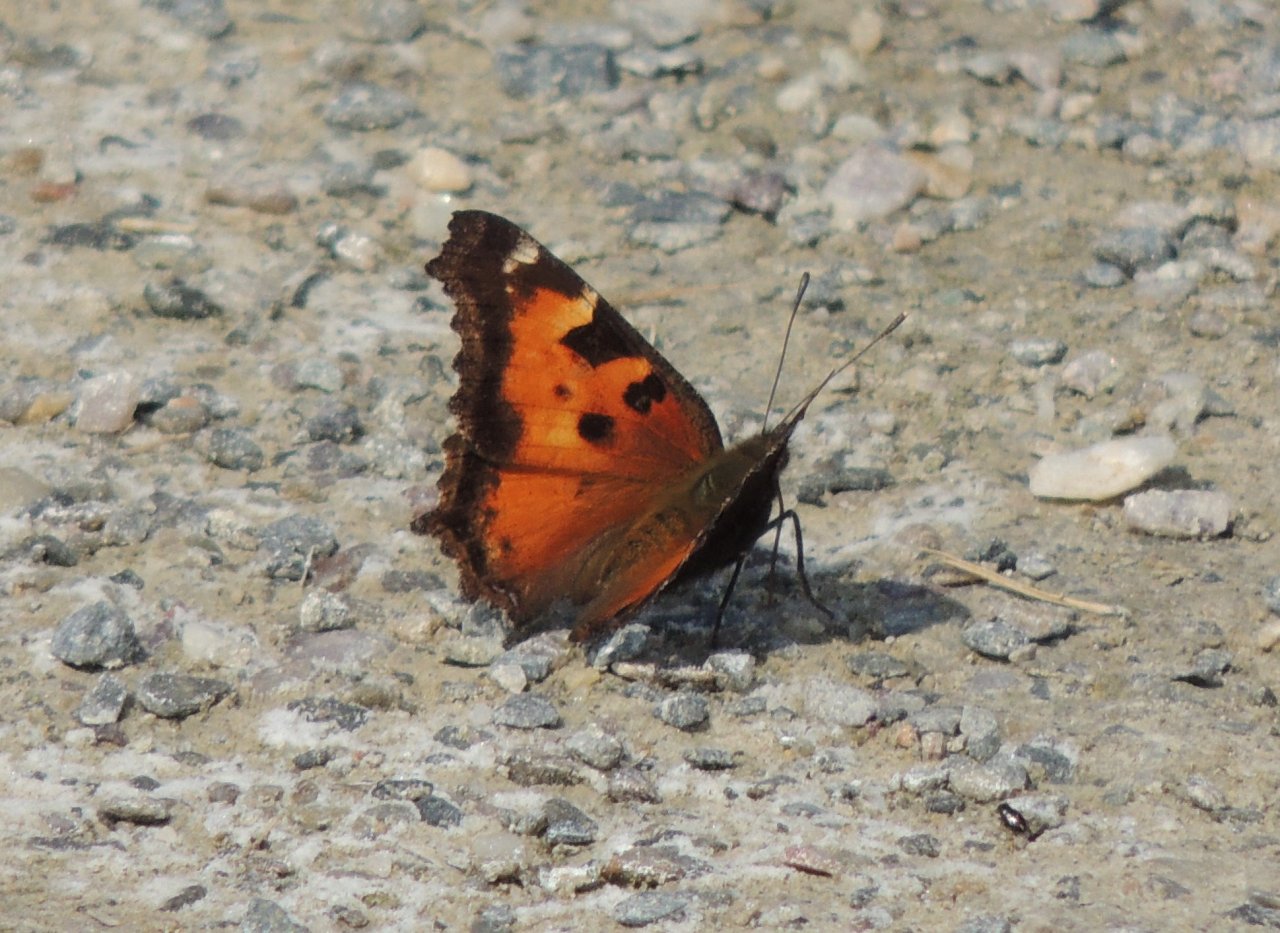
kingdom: Animalia
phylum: Arthropoda
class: Insecta
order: Lepidoptera
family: Nymphalidae
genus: Nymphalis
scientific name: Nymphalis californica
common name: California Tortoiseshell
